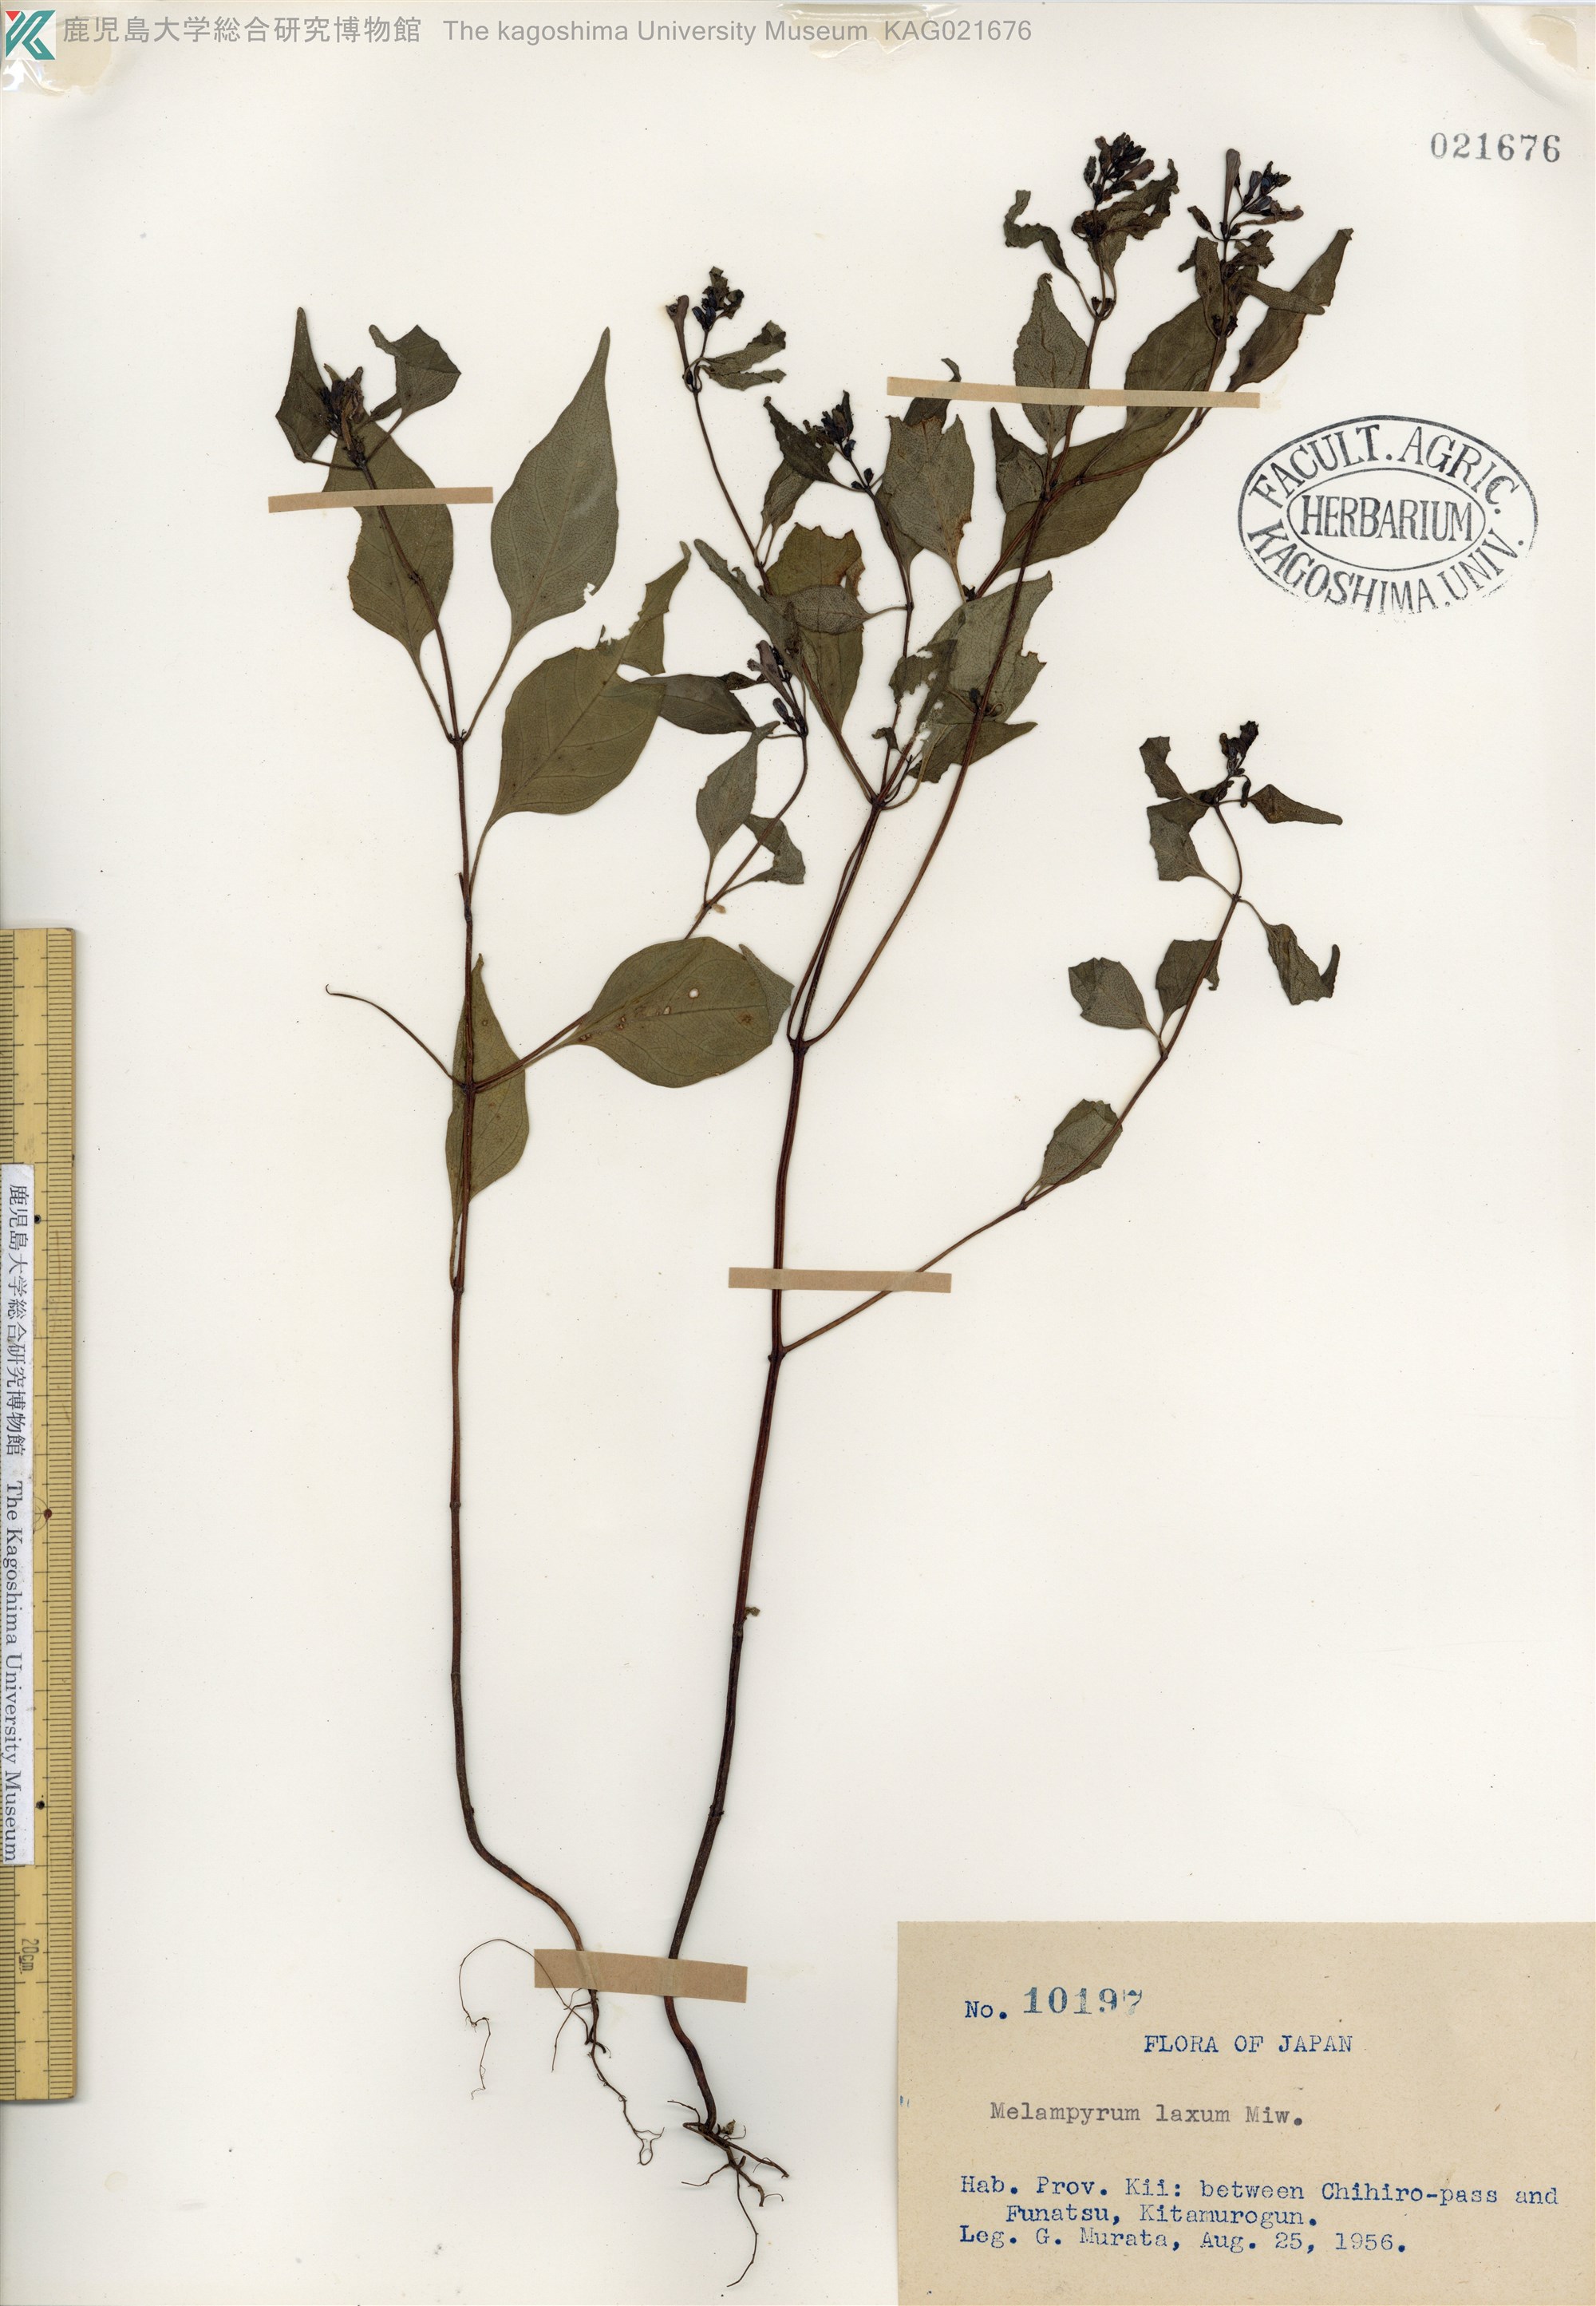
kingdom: Plantae
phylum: Tracheophyta
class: Magnoliopsida
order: Lamiales
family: Orobanchaceae
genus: Melampyrum
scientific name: Melampyrum laxum
